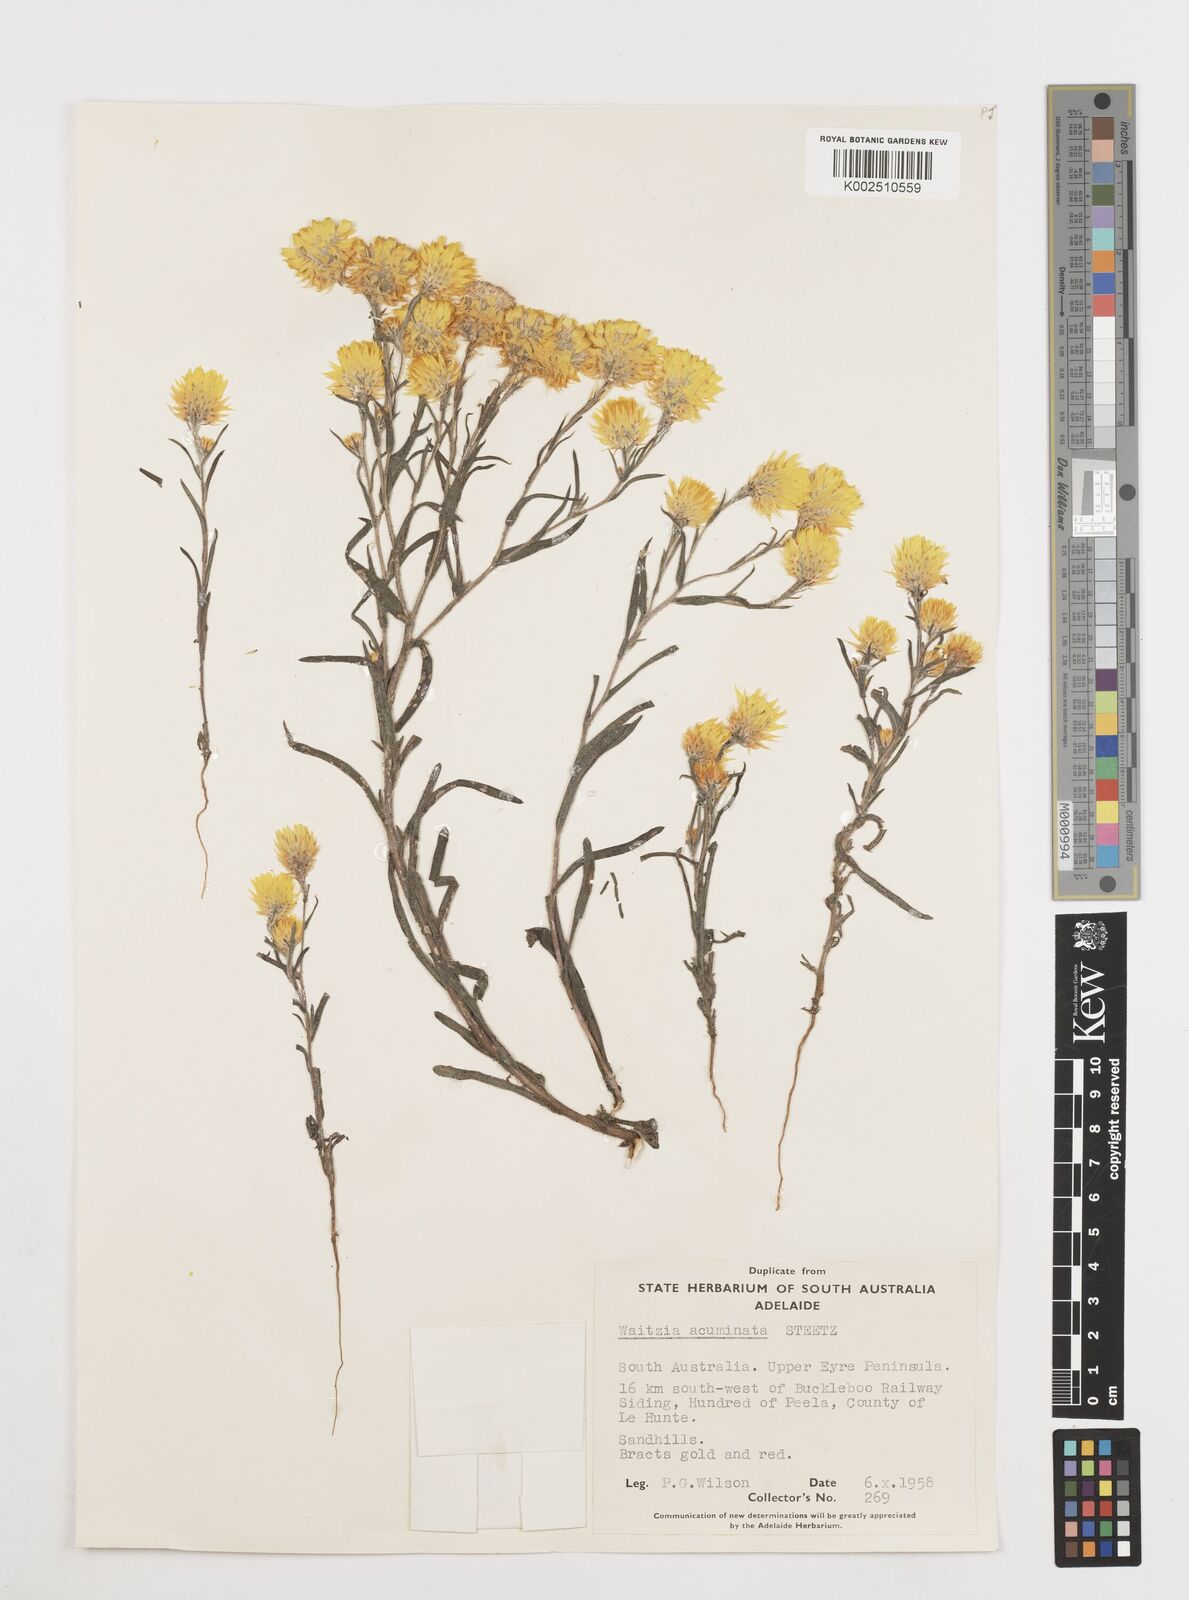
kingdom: Plantae
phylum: Tracheophyta
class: Magnoliopsida
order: Asterales
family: Asteraceae
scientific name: Asteraceae
